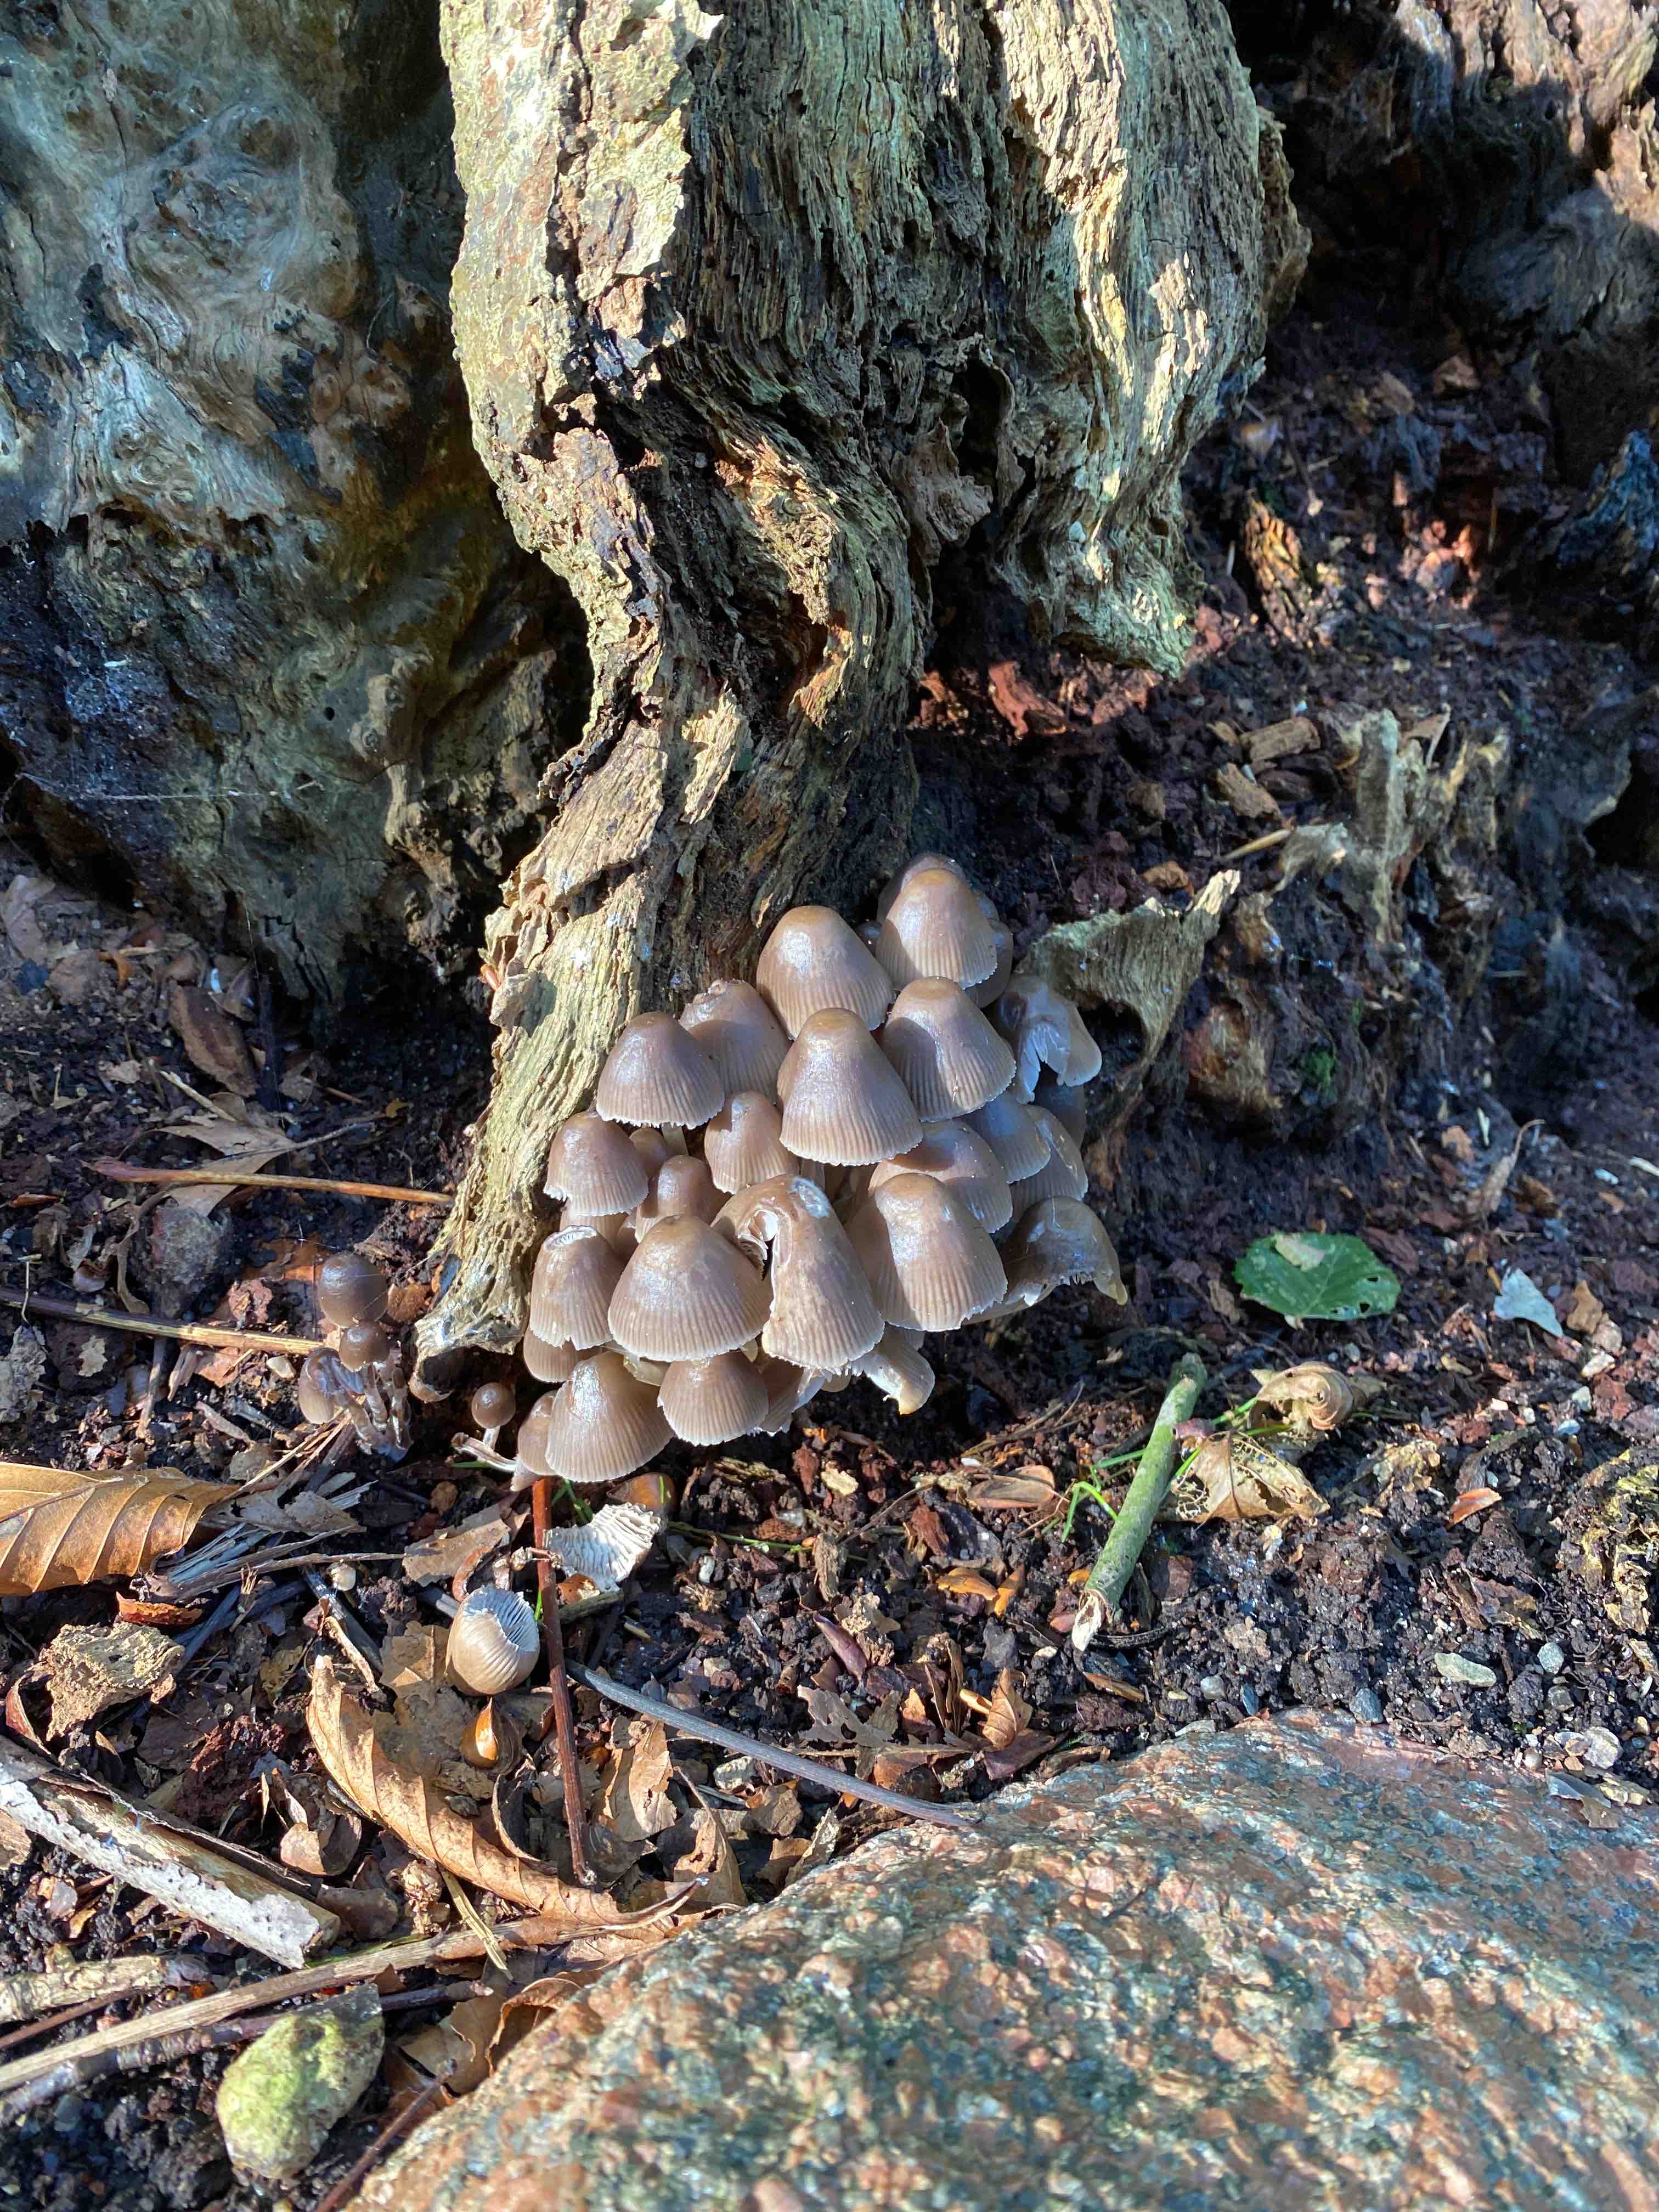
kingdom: Fungi
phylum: Basidiomycota
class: Agaricomycetes
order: Agaricales
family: Mycenaceae
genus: Mycena
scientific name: Mycena
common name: huesvamp
